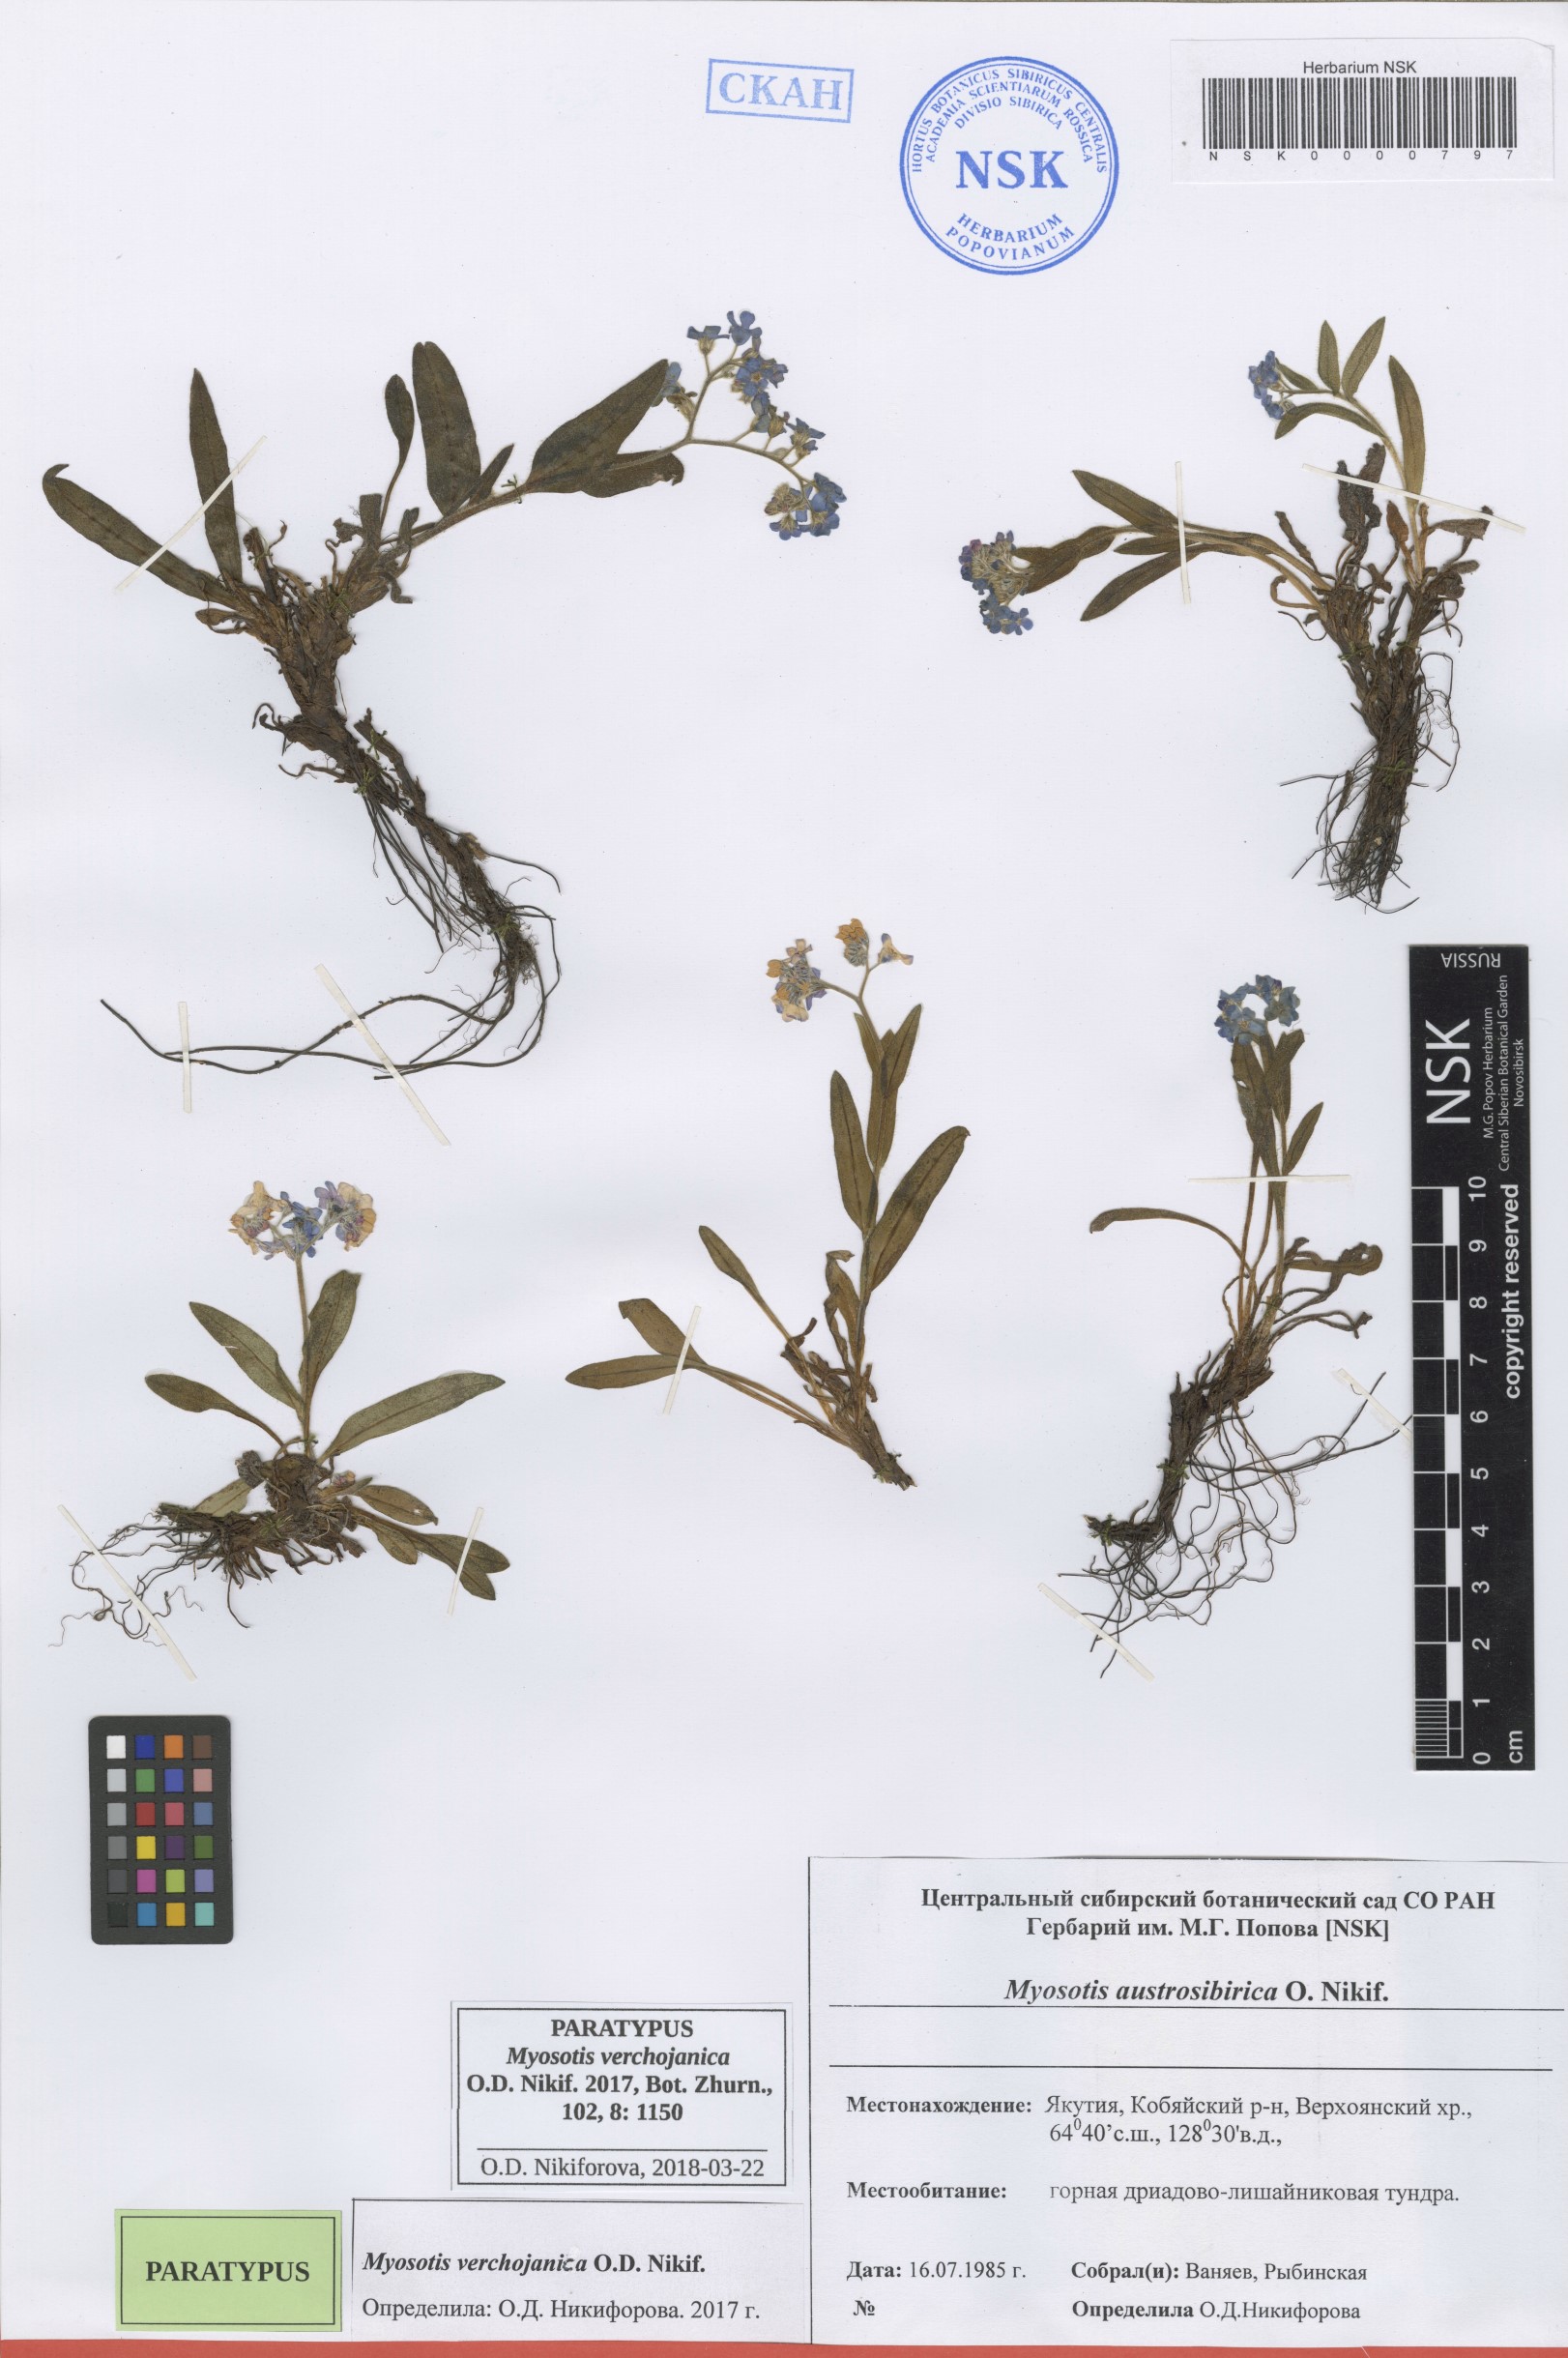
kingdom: Plantae
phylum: Tracheophyta
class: Magnoliopsida
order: Boraginales
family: Boraginaceae
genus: Myosotis
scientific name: Myosotis
